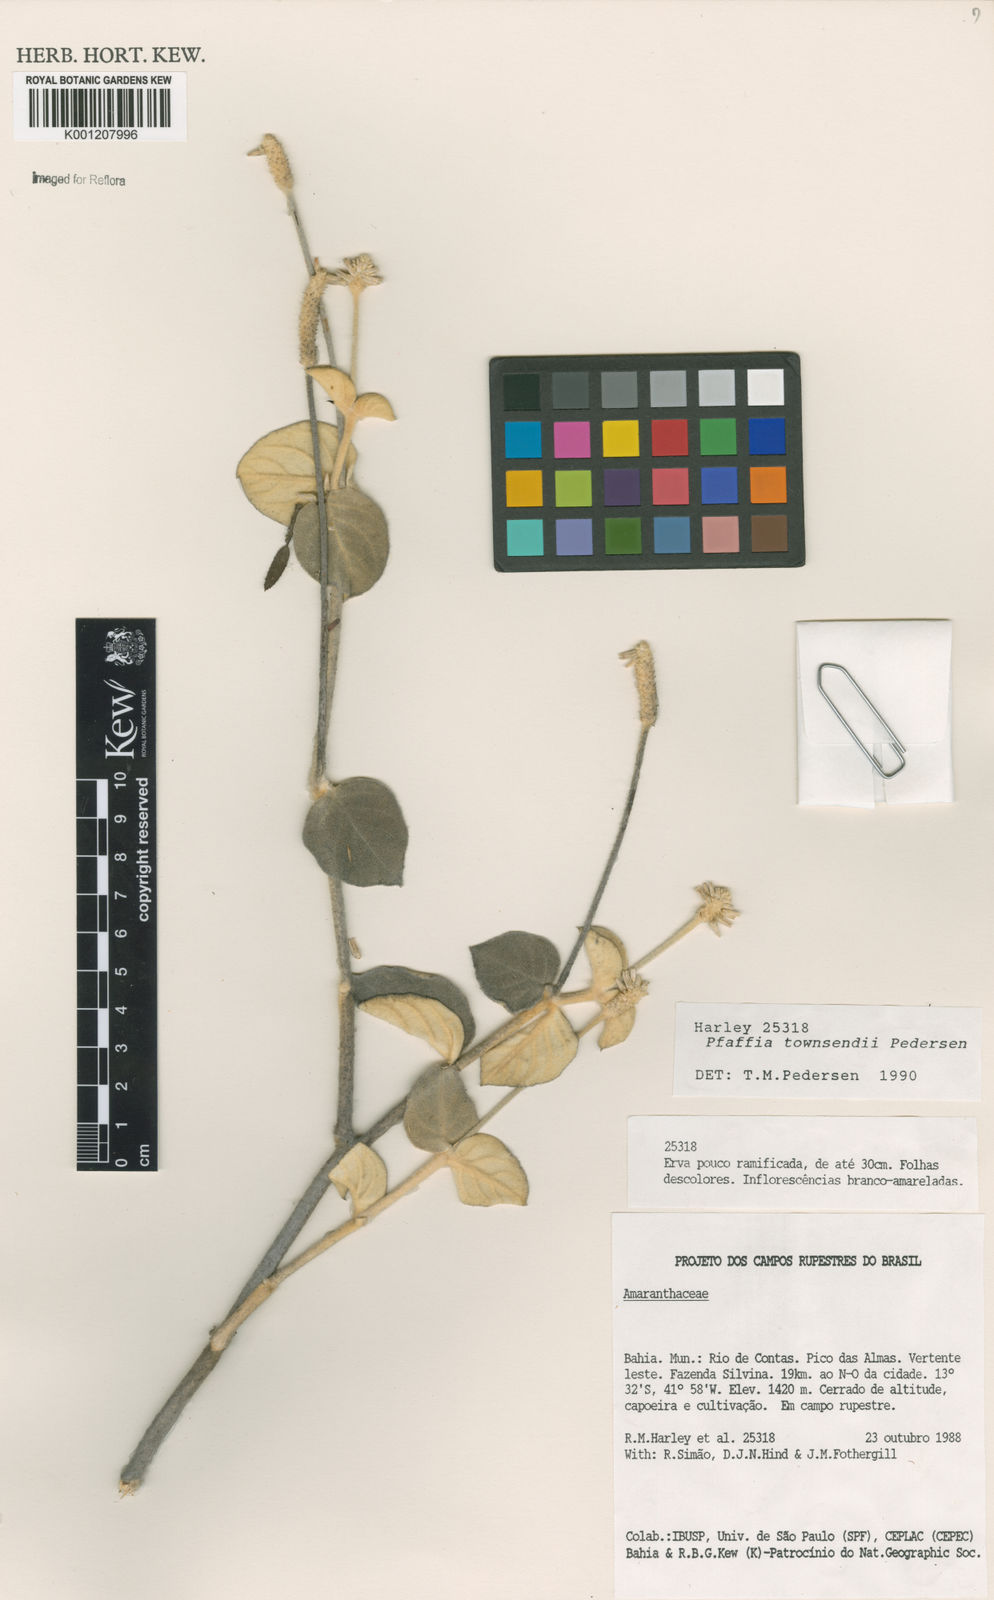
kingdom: Plantae
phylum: Tracheophyta
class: Magnoliopsida
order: Caryophyllales
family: Amaranthaceae
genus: Pfaffia
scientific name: Pfaffia townsendii
